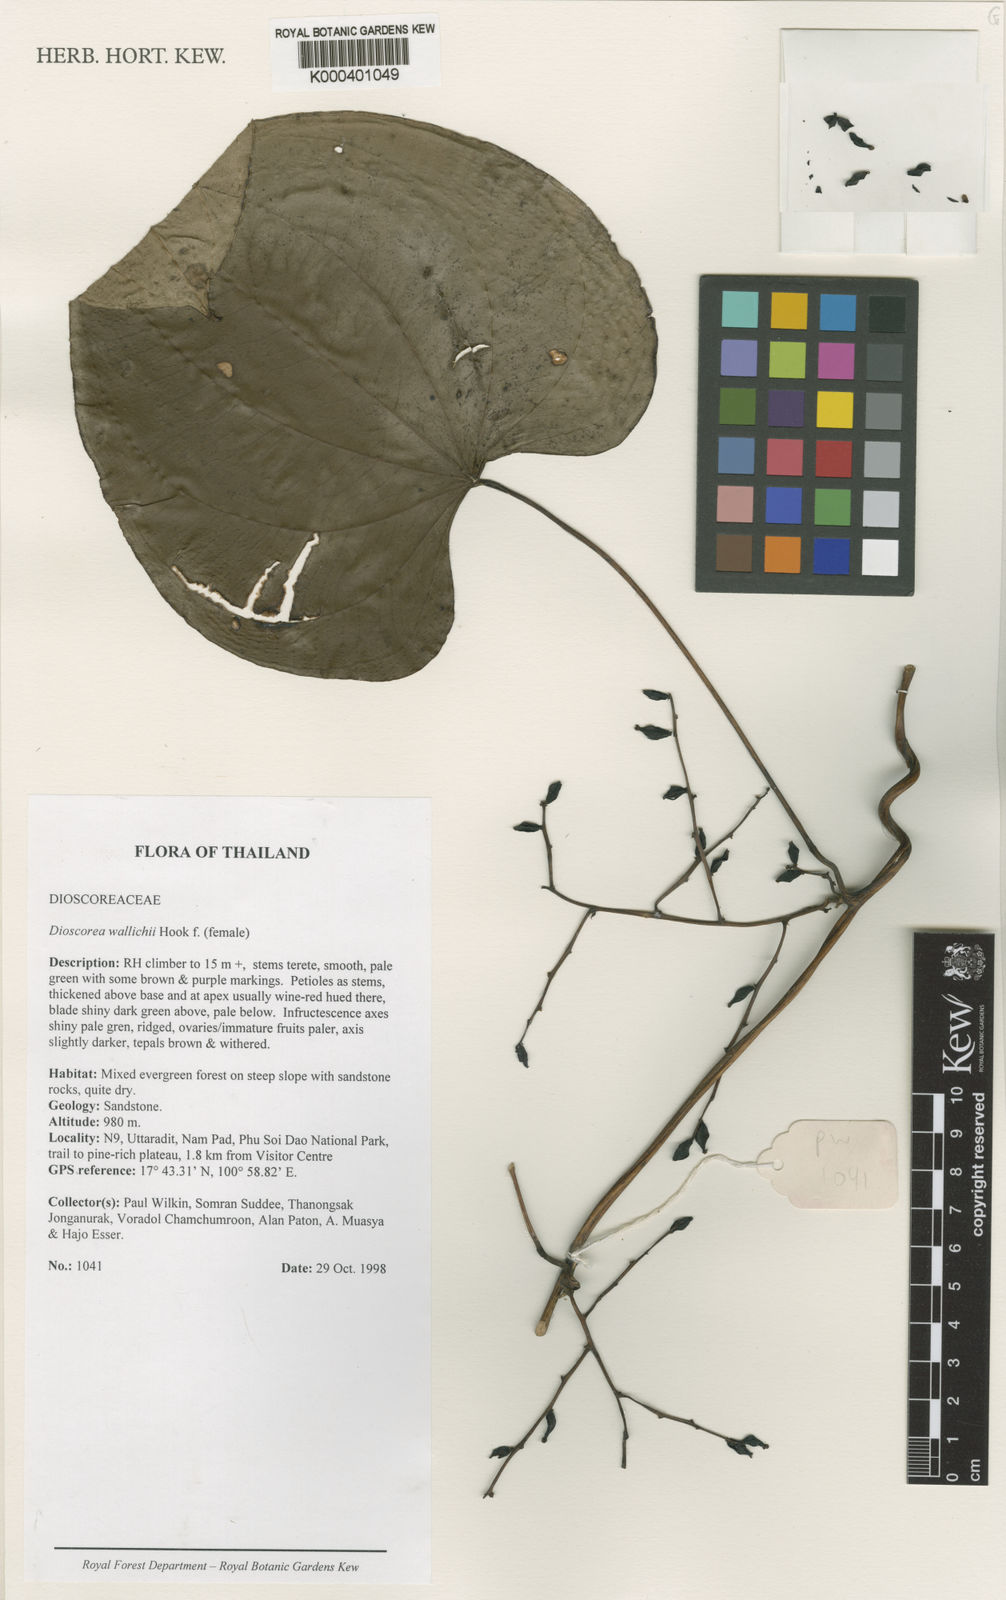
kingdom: Plantae
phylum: Tracheophyta
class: Liliopsida
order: Dioscoreales
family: Dioscoreaceae
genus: Dioscorea
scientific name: Dioscorea wallichii
